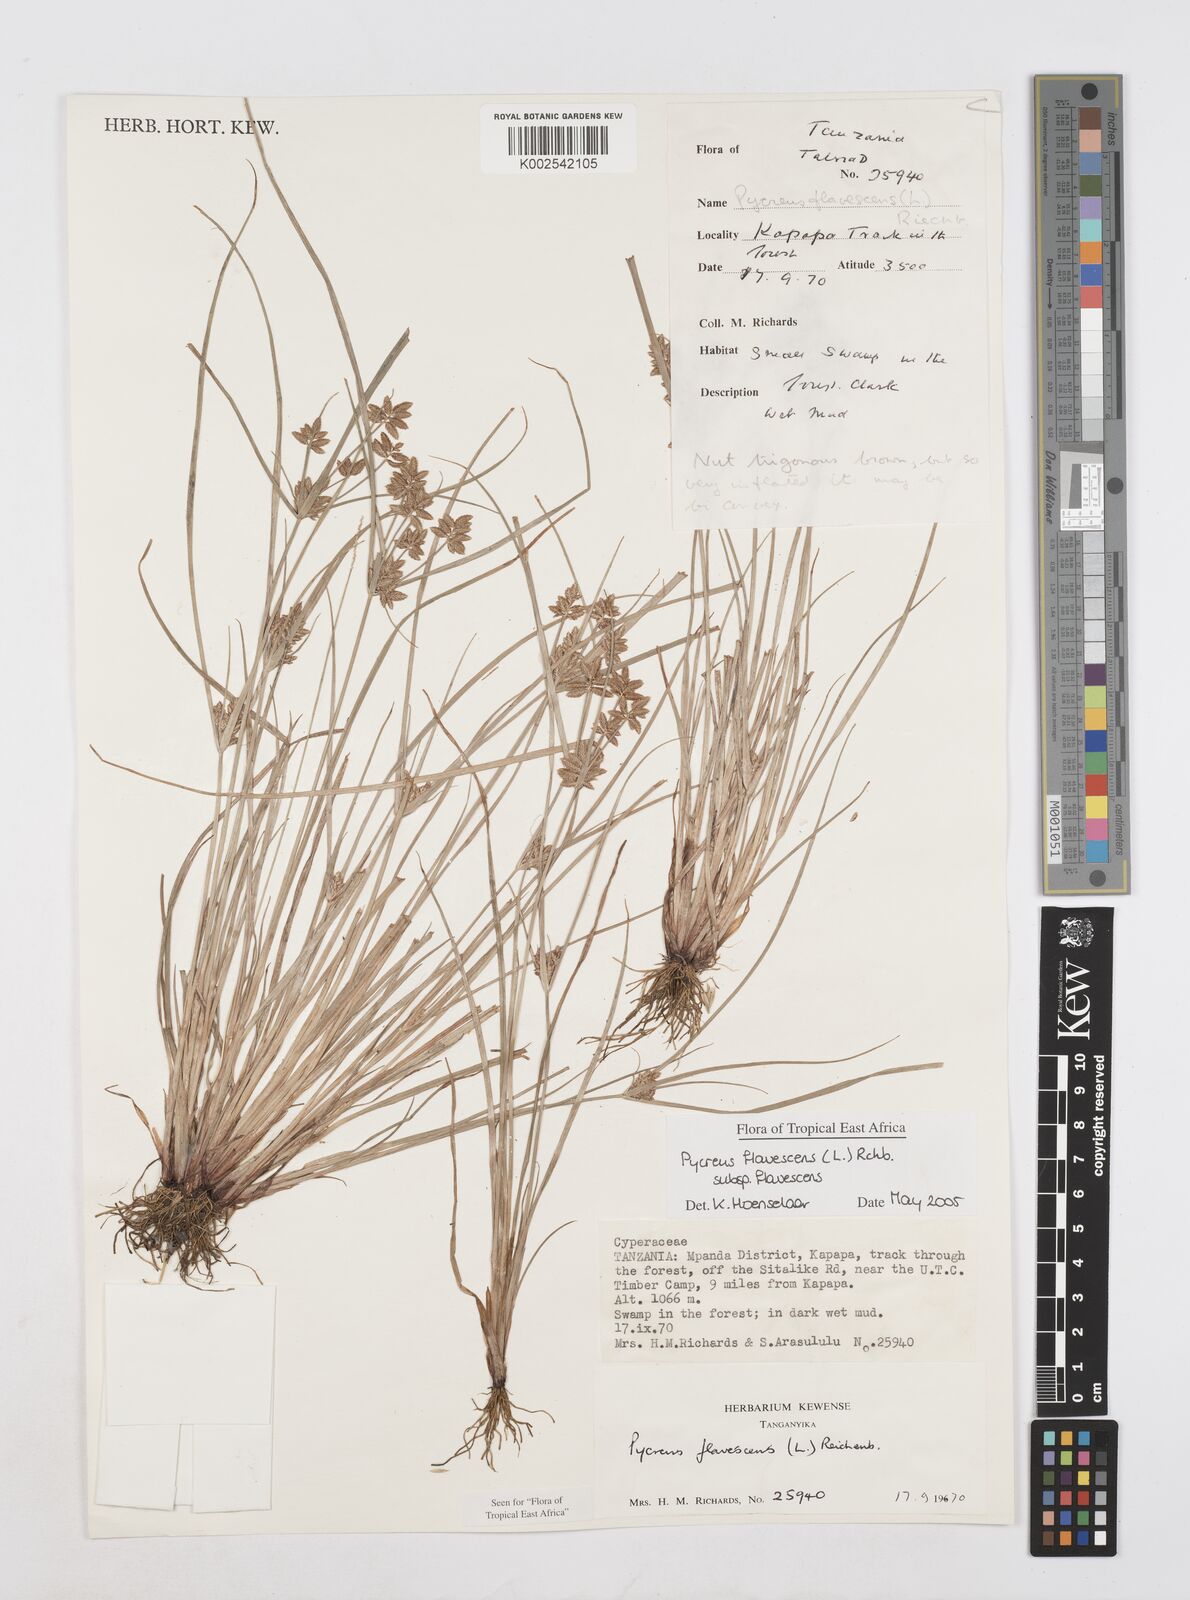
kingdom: Plantae
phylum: Tracheophyta
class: Liliopsida
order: Poales
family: Cyperaceae
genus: Cyperus
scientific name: Cyperus flavescens
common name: Yellow galingale
